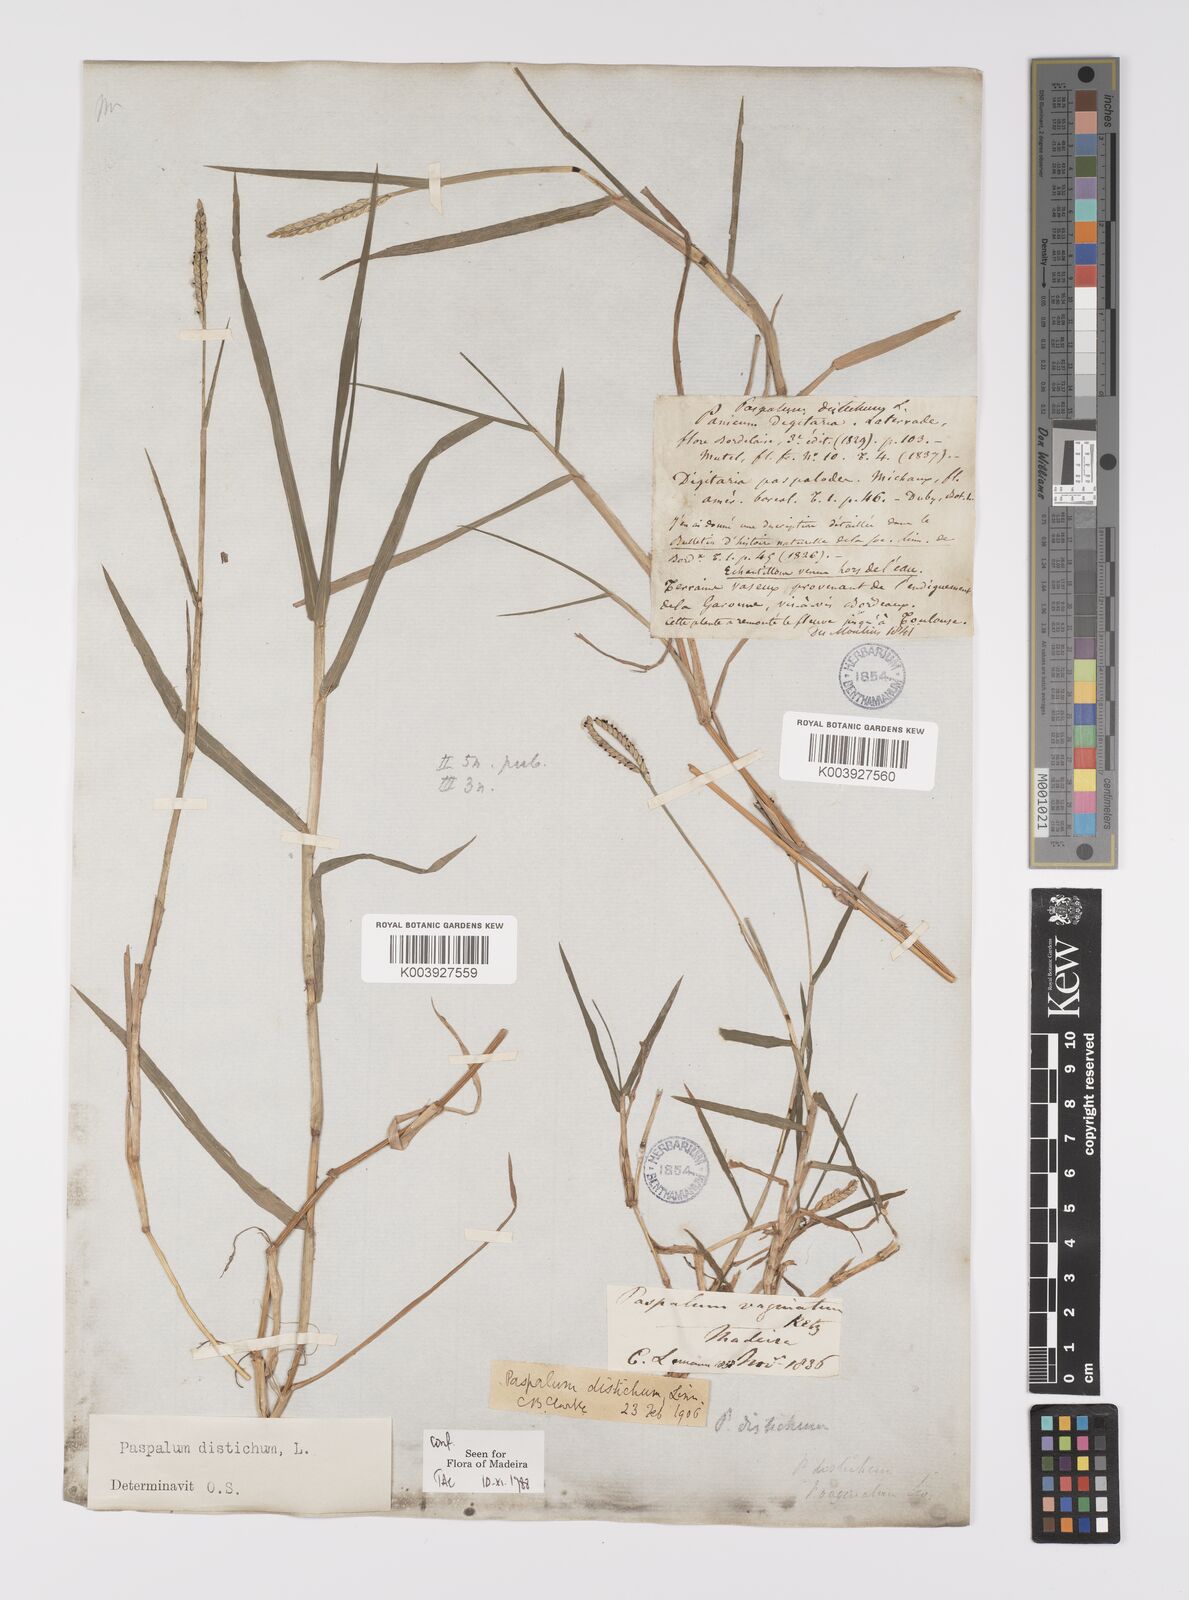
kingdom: Plantae
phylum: Tracheophyta
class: Liliopsida
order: Poales
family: Poaceae
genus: Paspalum
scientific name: Paspalum distichum
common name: Knotgrass
